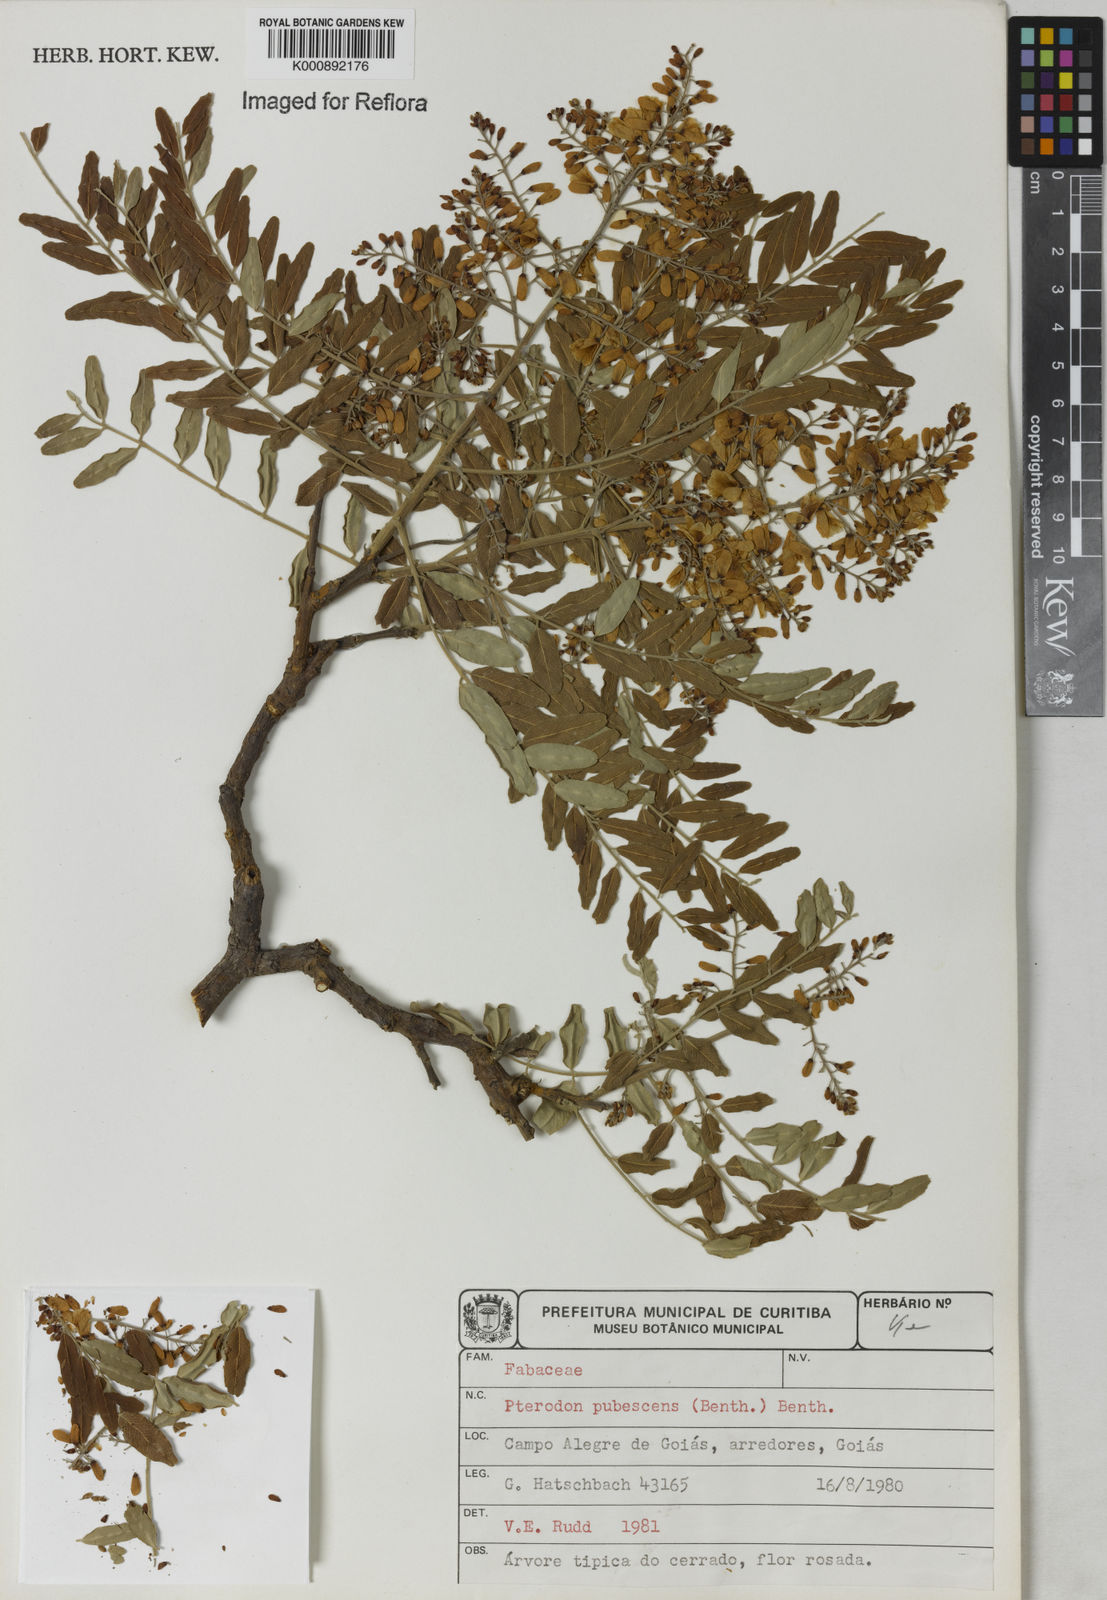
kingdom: Plantae
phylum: Tracheophyta
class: Magnoliopsida
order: Fabales
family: Fabaceae
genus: Pterodon
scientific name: Pterodon emarginatus
